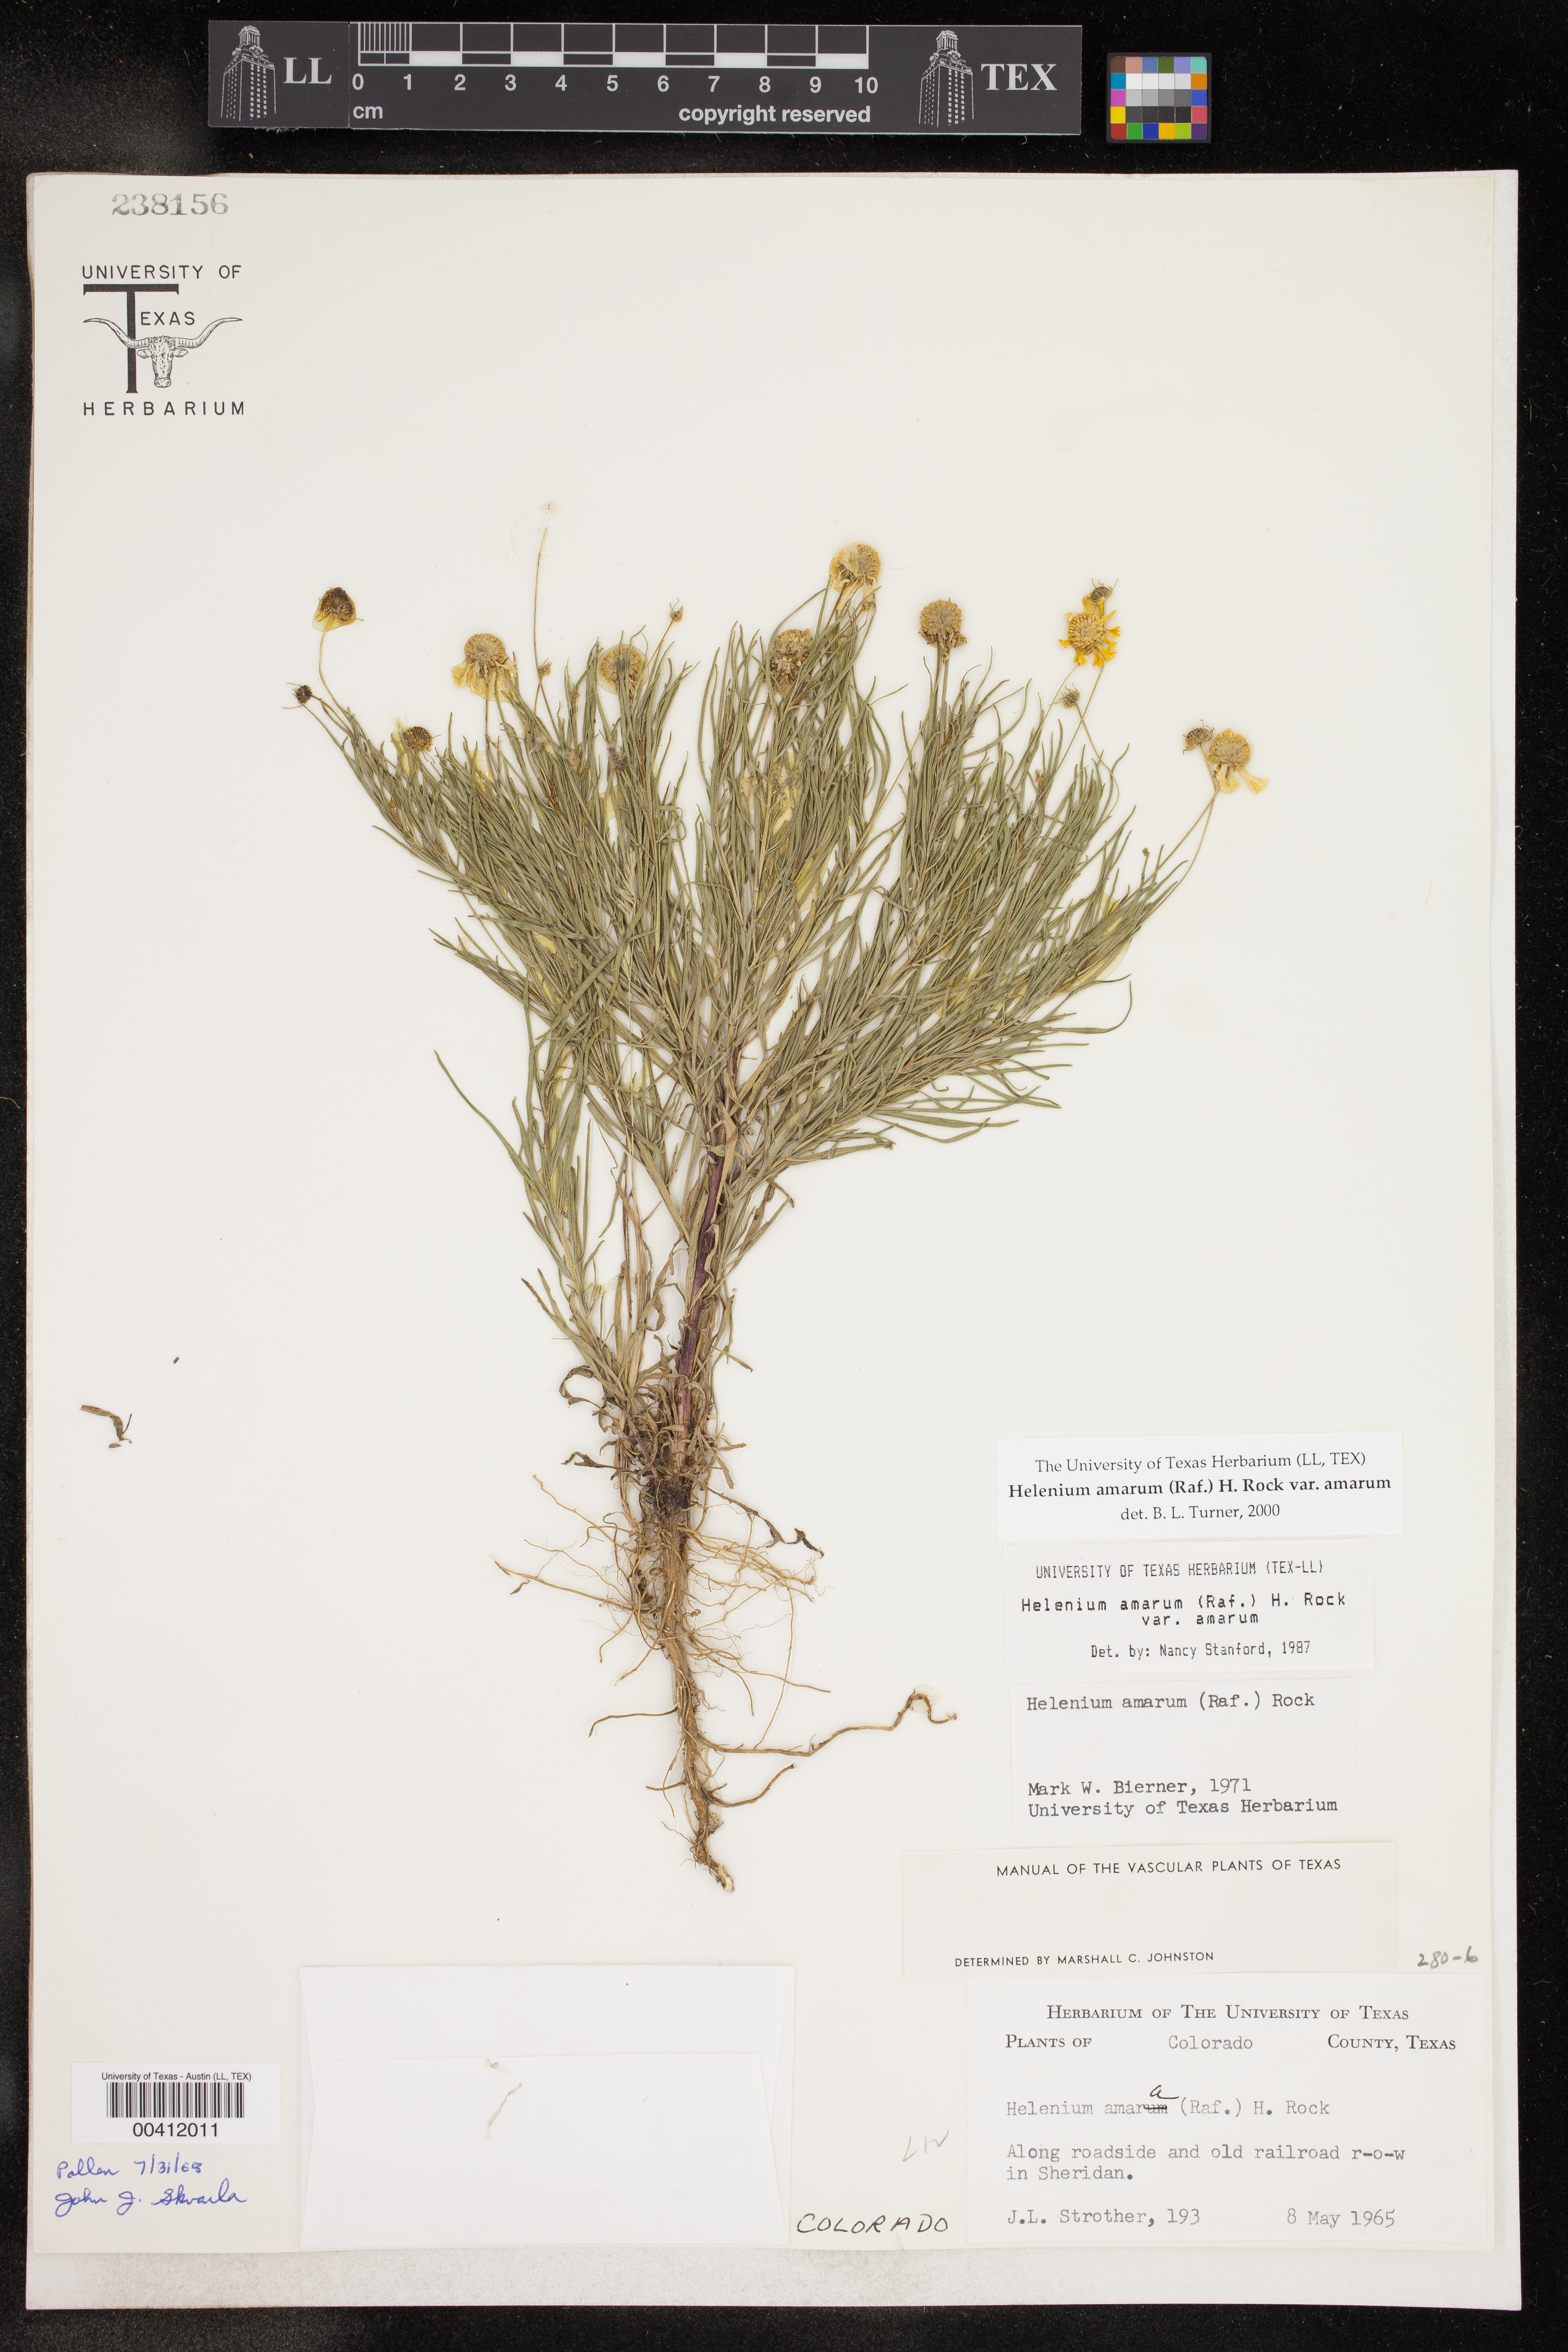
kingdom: Plantae
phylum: Tracheophyta
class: Magnoliopsida
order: Asterales
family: Asteraceae
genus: Helenium
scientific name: Helenium amarum
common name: Bitter sneezeweed
